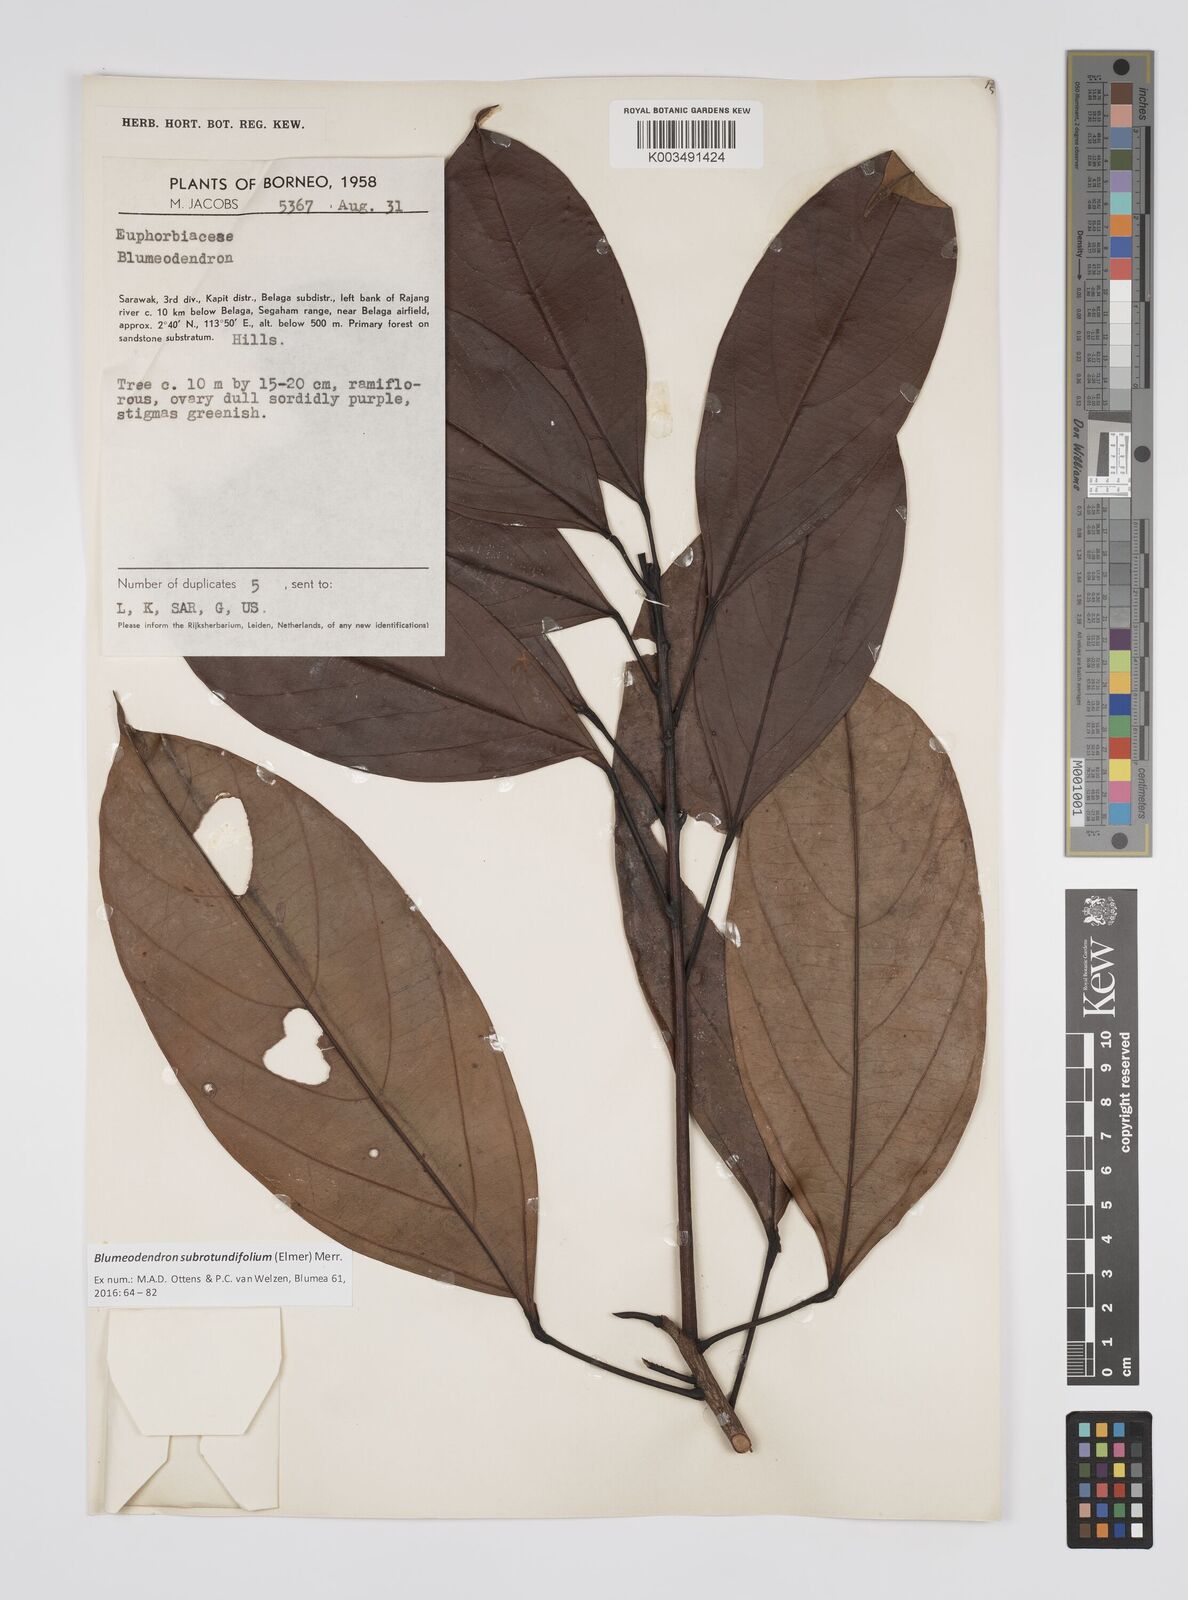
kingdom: Plantae
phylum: Tracheophyta
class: Magnoliopsida
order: Malpighiales
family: Euphorbiaceae
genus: Blumeodendron
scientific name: Blumeodendron subrotundifolium
